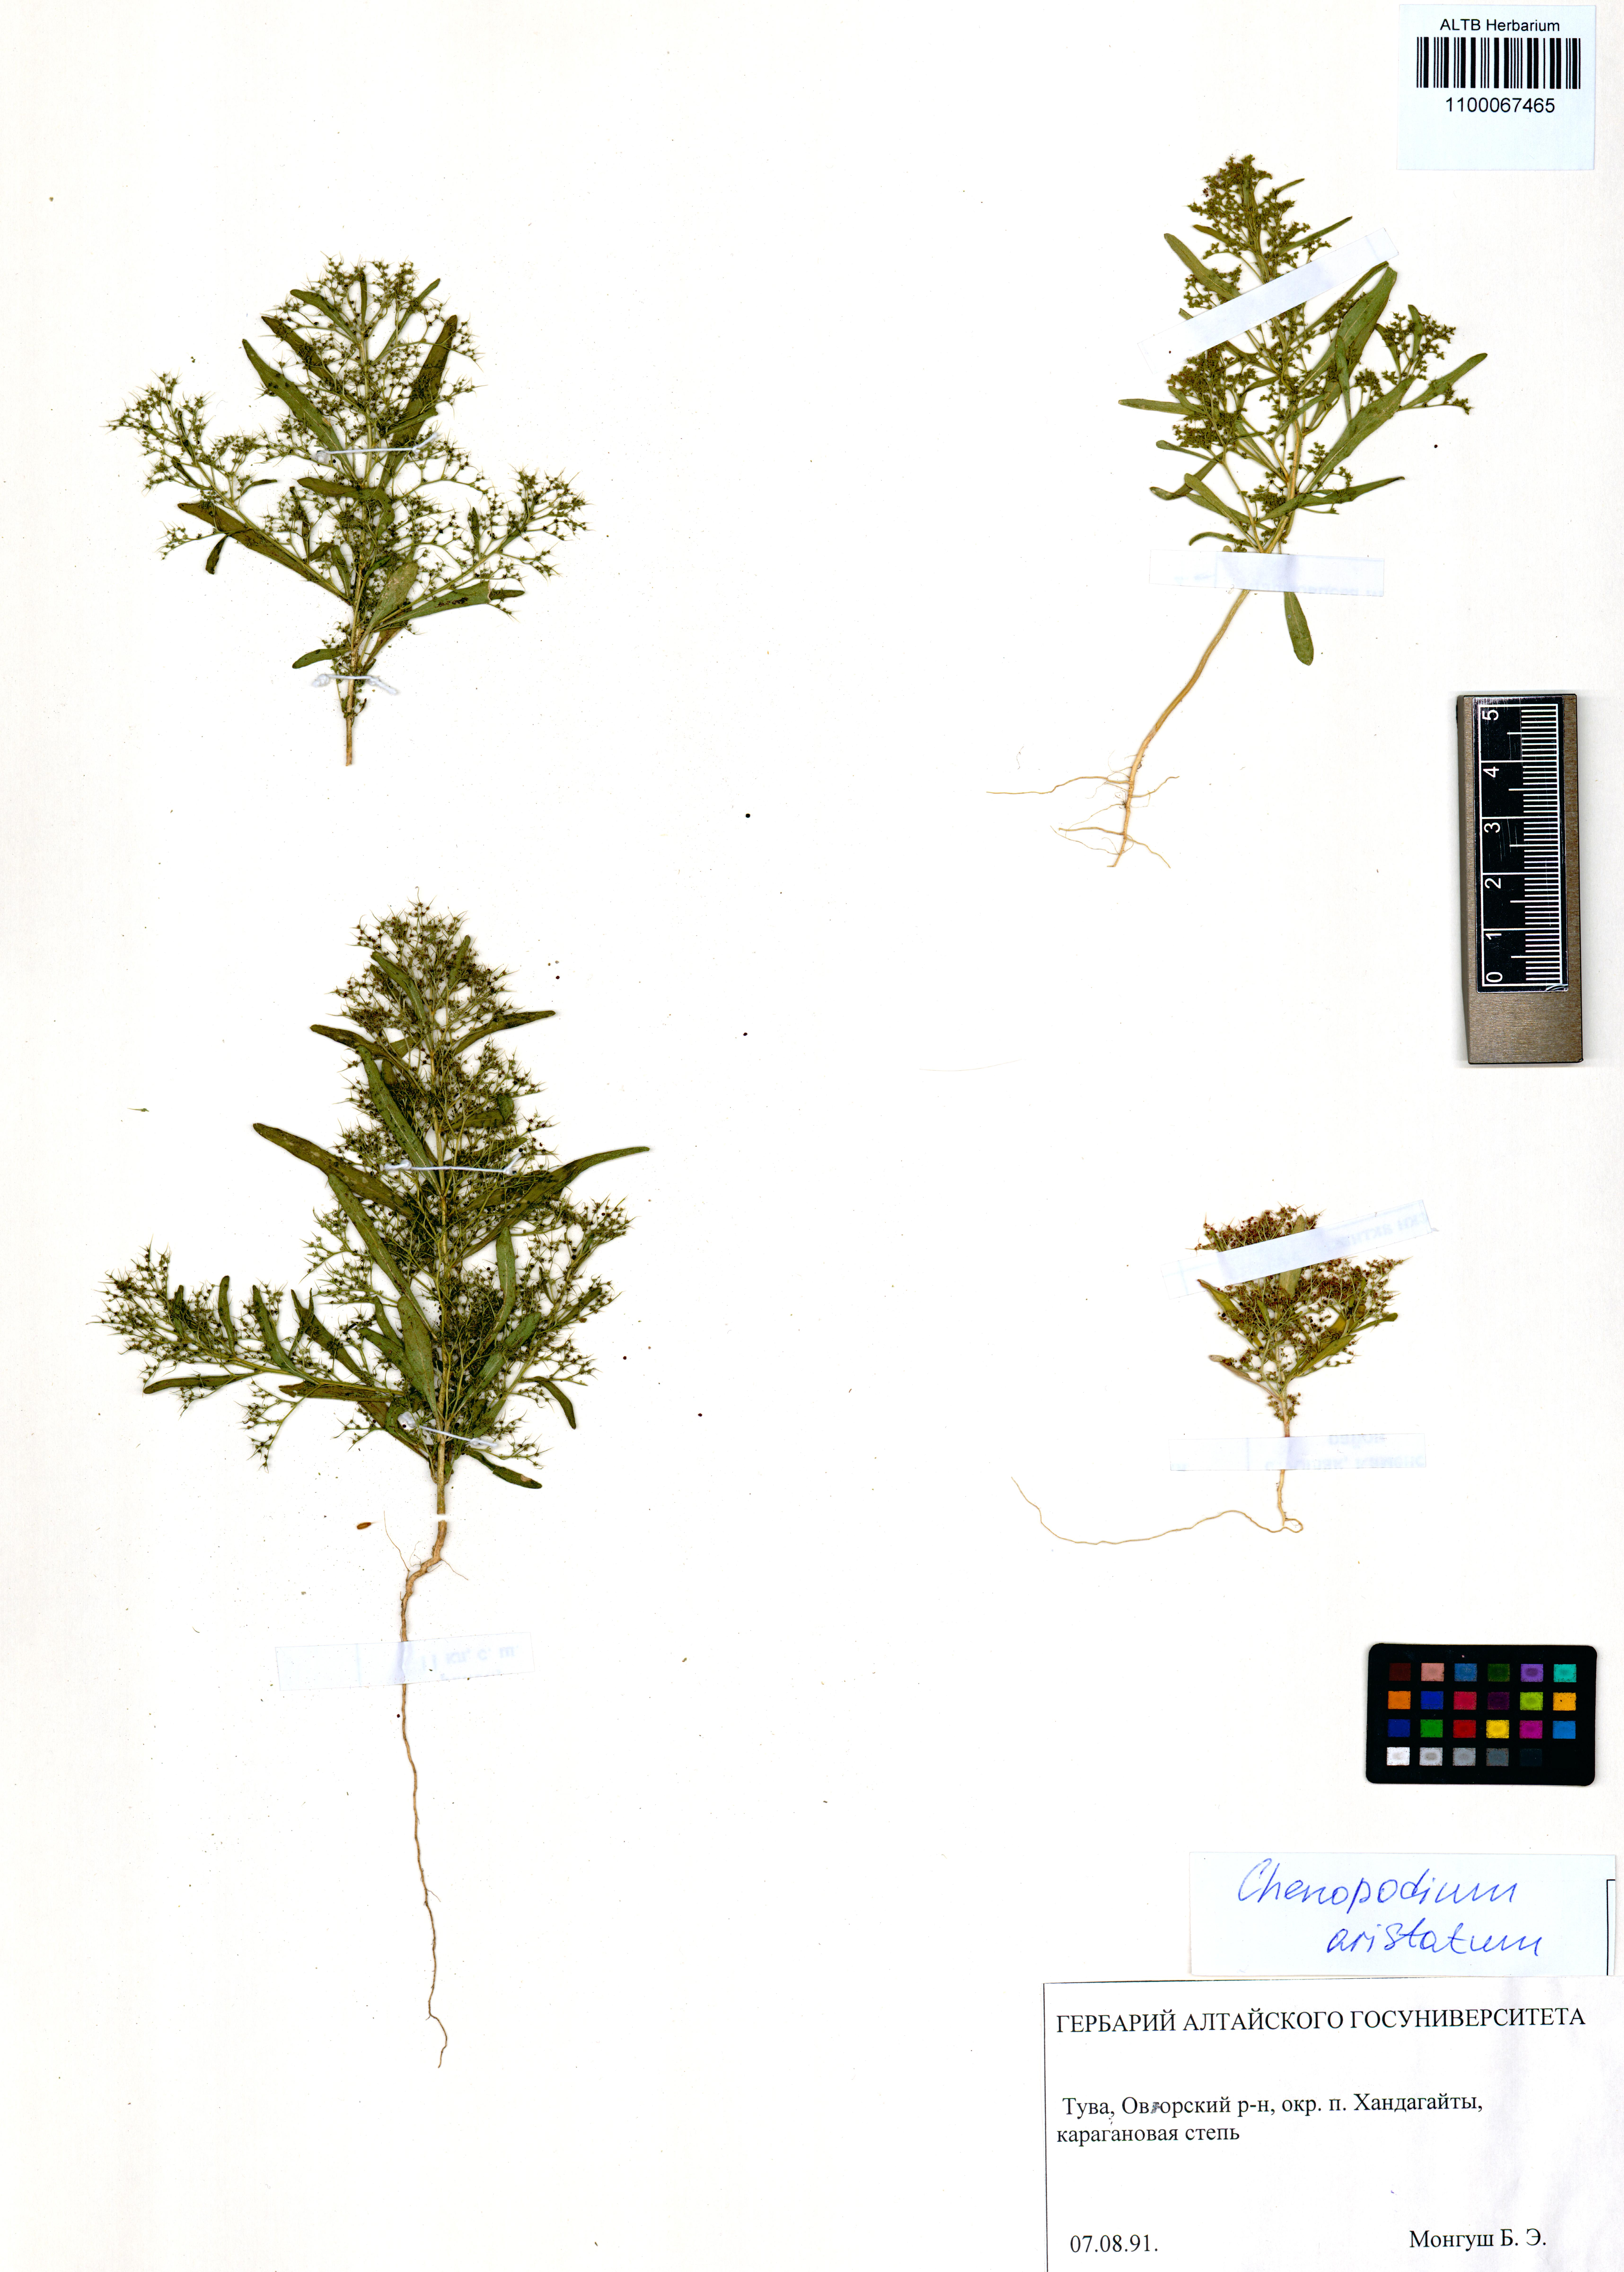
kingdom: Plantae
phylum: Tracheophyta
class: Magnoliopsida
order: Caryophyllales
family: Amaranthaceae
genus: Teloxys
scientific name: Teloxys aristata
